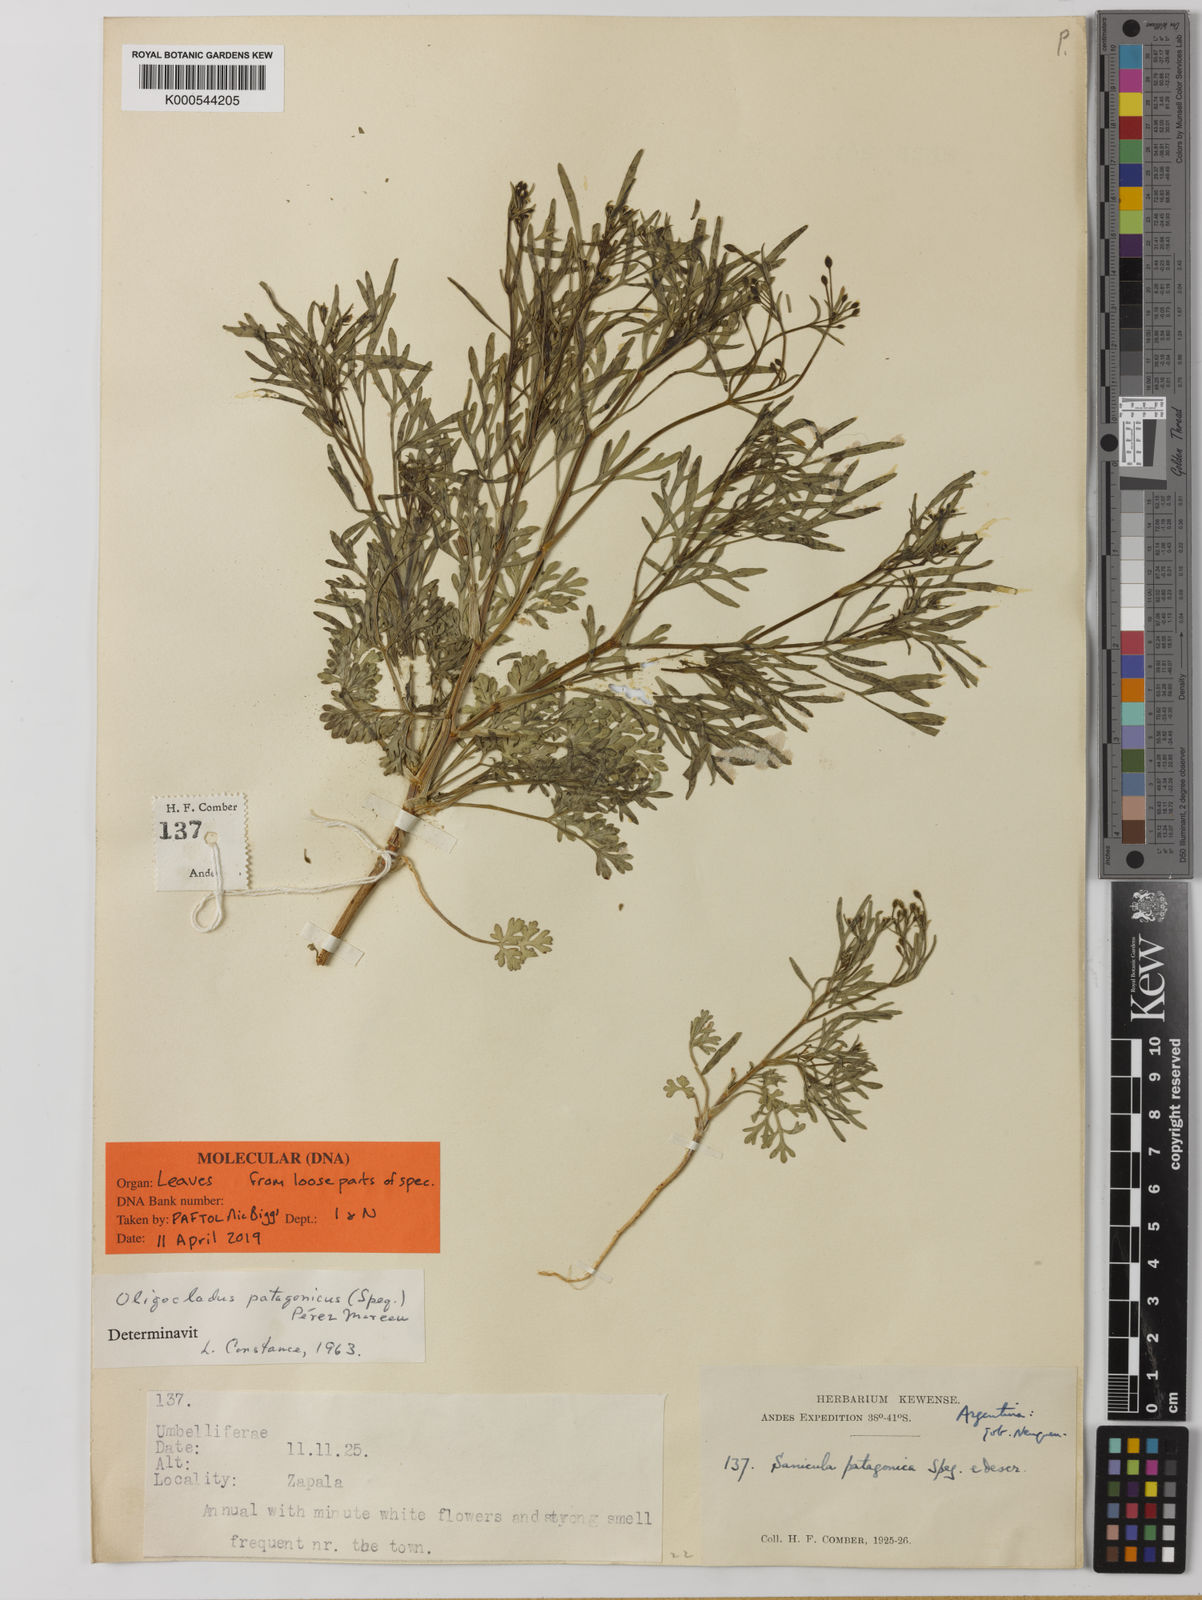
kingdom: Plantae
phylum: Tracheophyta
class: Magnoliopsida
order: Apiales
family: Apiaceae
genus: Oligocladus
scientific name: Oligocladus patagonicus
